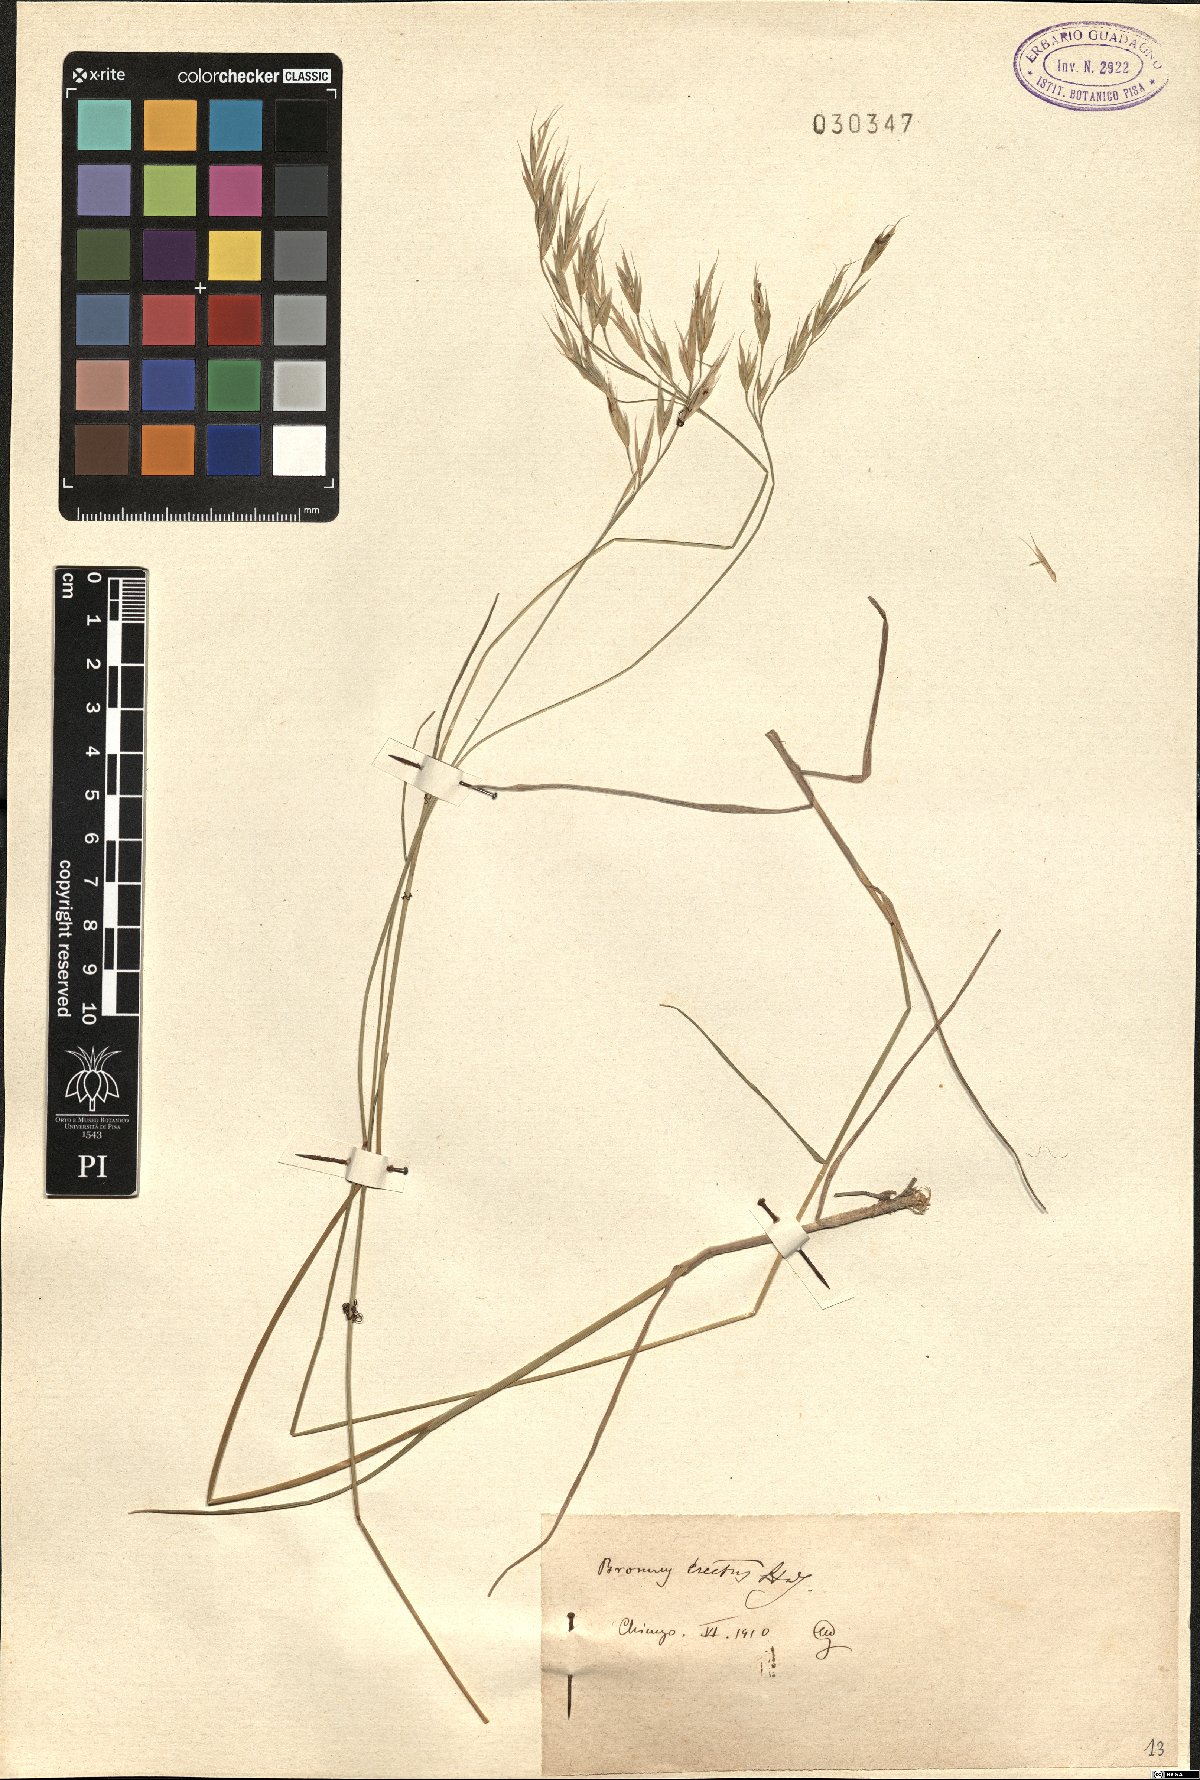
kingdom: Plantae
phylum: Tracheophyta
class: Liliopsida
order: Poales
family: Poaceae
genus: Bromus
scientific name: Bromus erectus
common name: Erect brome
